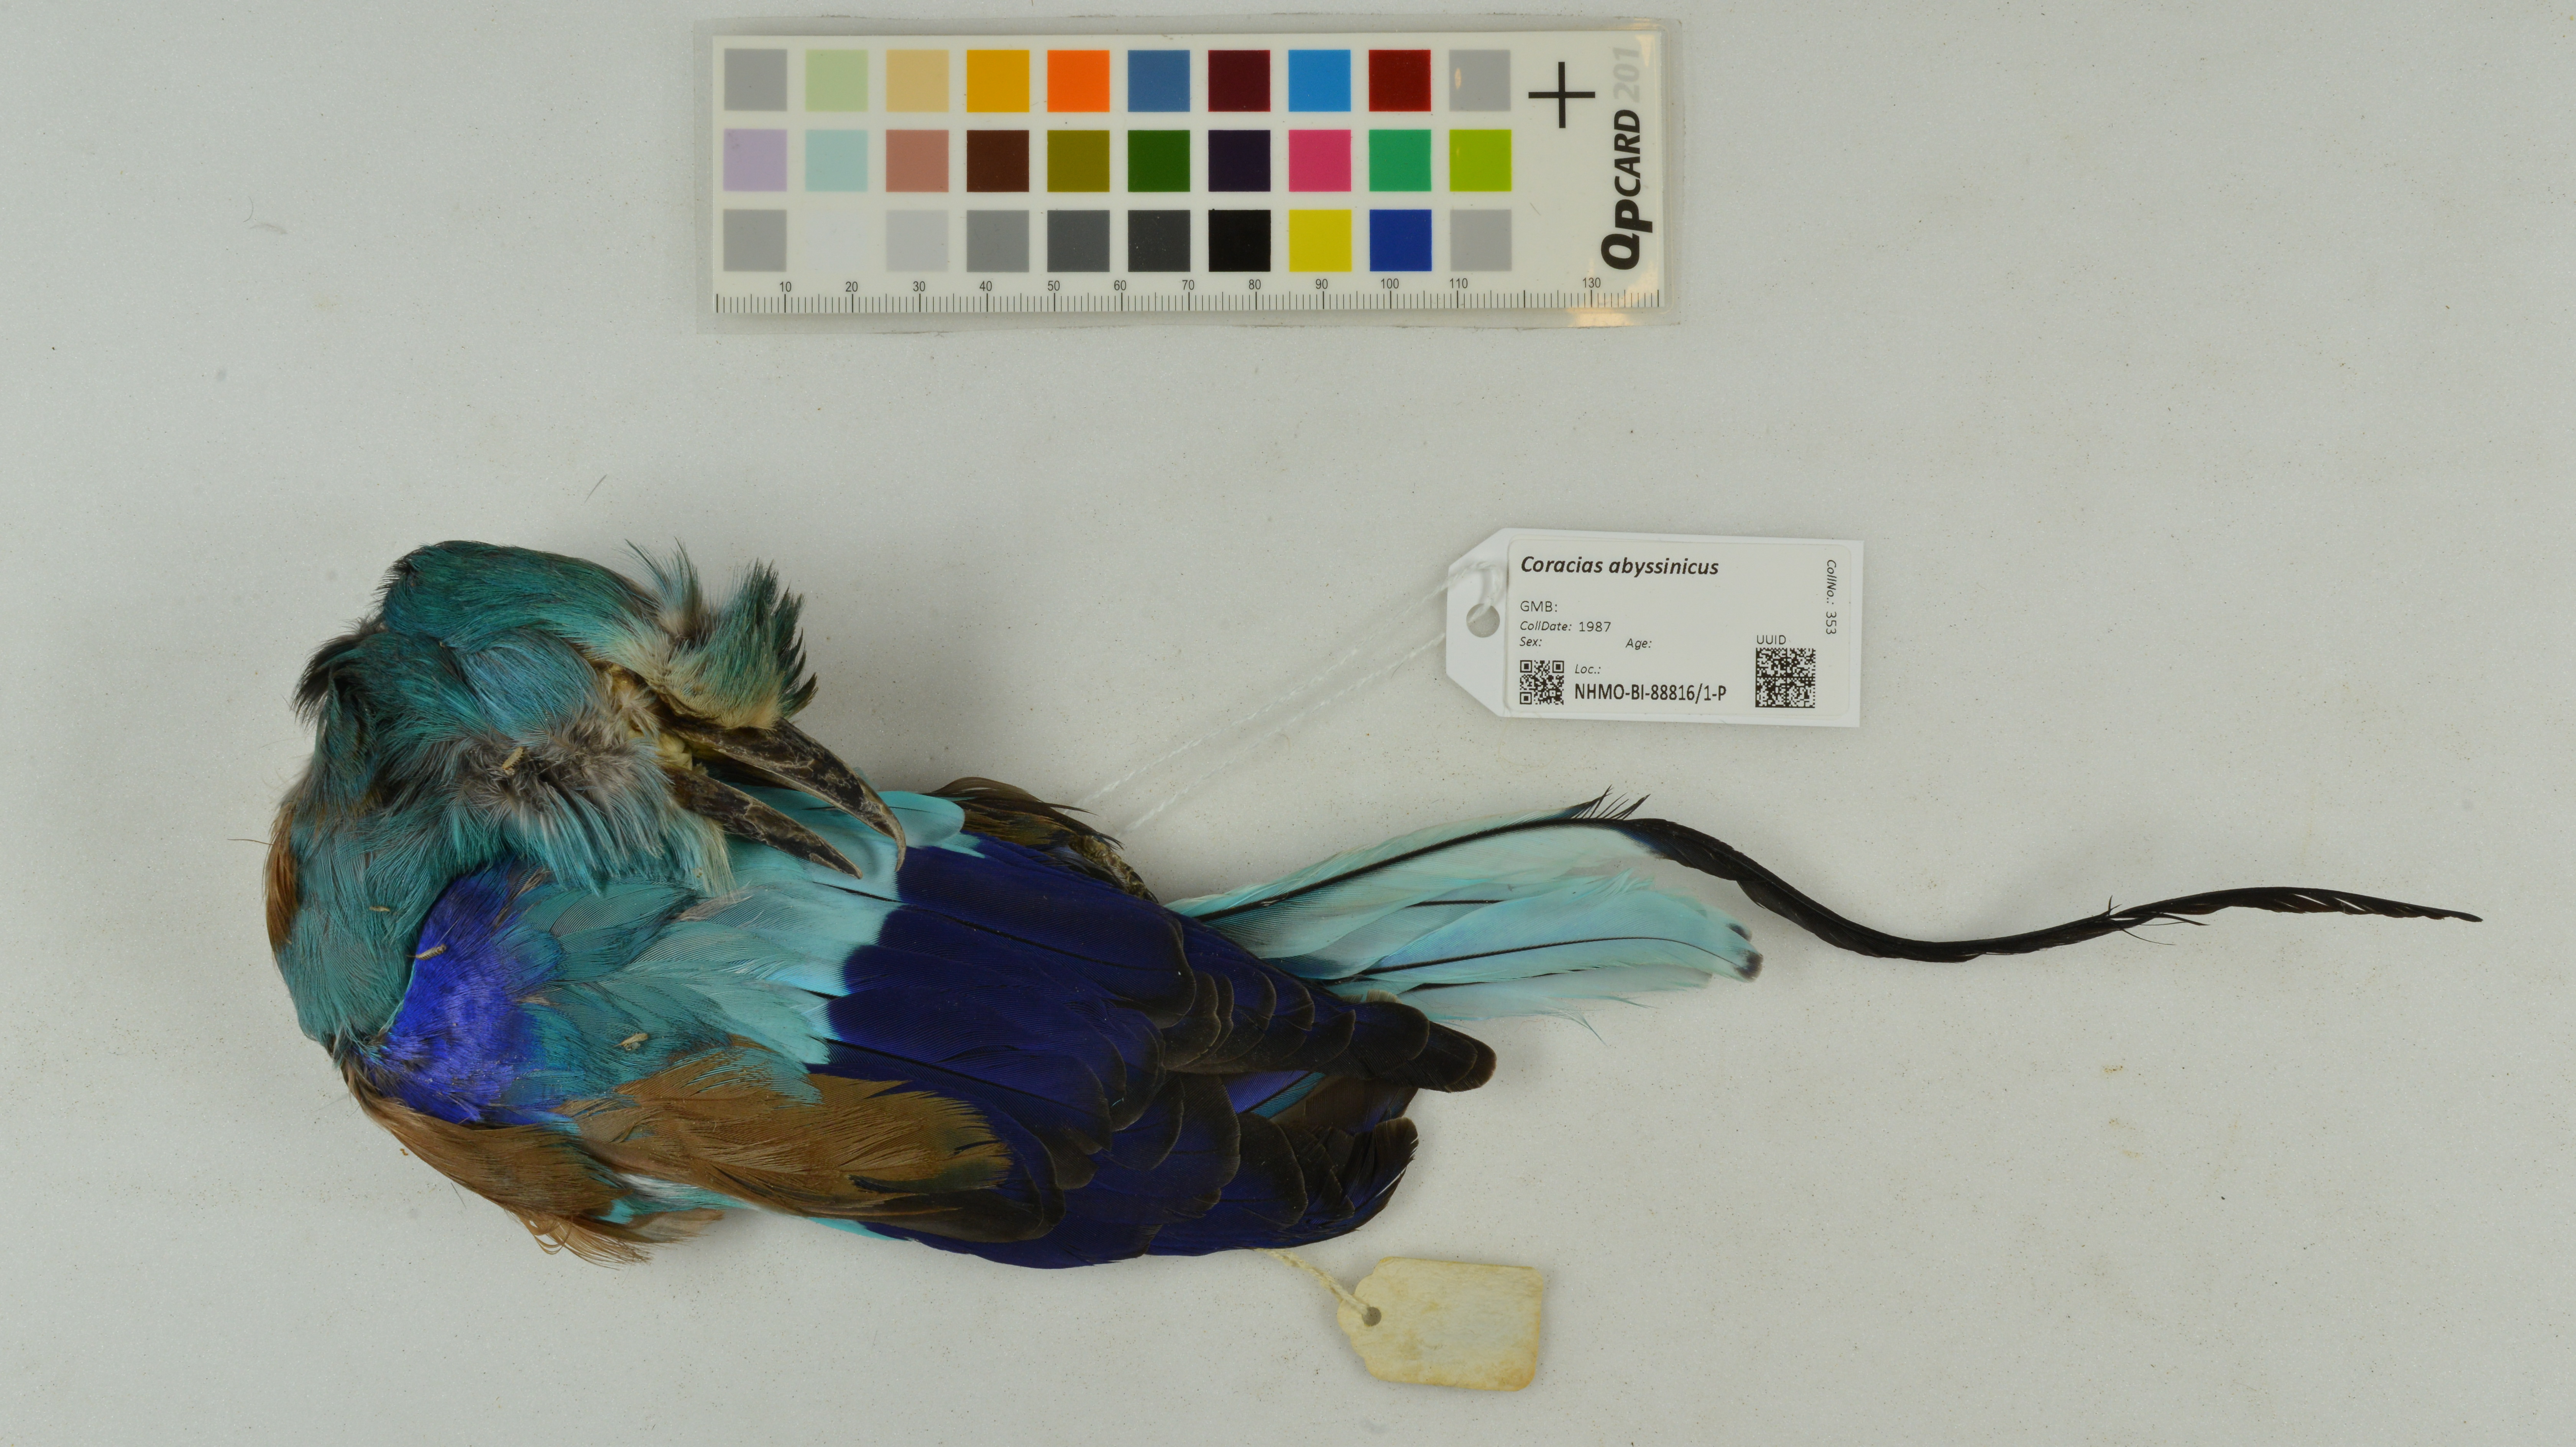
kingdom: Animalia
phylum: Chordata
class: Aves
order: Coraciiformes
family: Coraciidae
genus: Coracias
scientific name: Coracias abyssinicus
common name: Abyssinian roller
